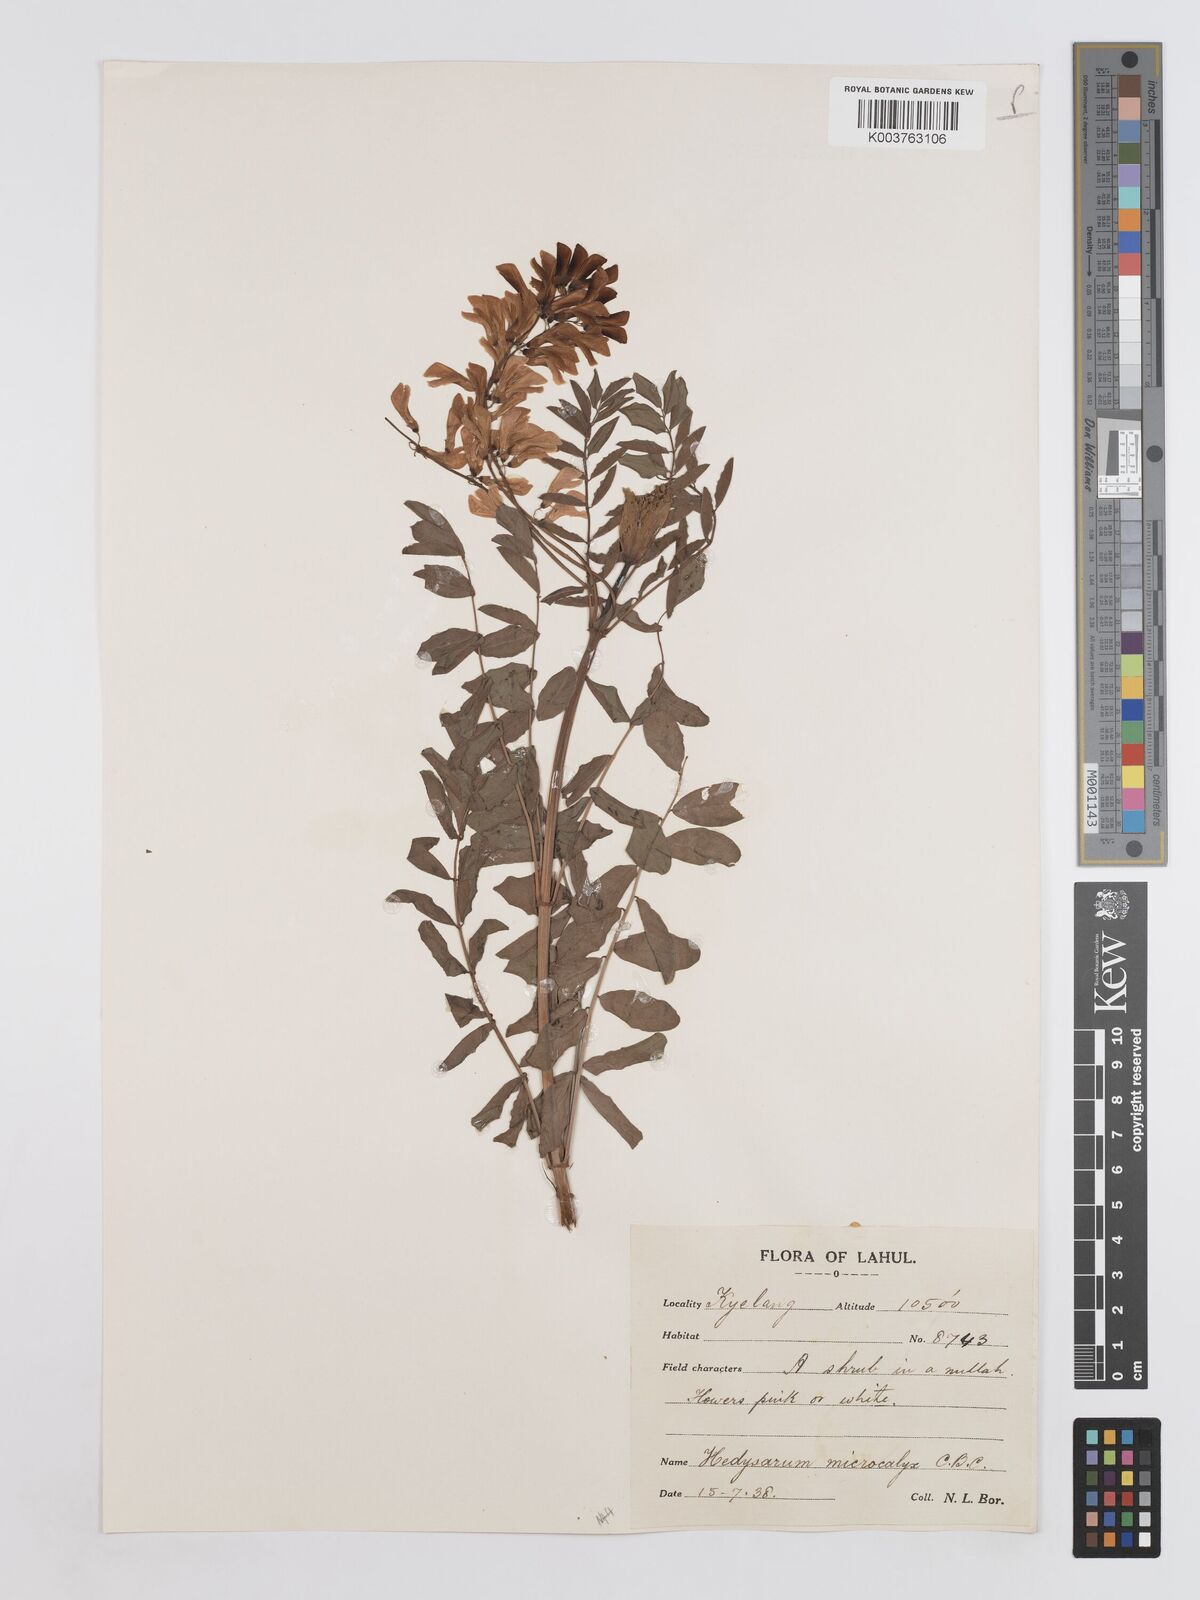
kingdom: Plantae
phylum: Tracheophyta
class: Magnoliopsida
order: Fabales
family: Fabaceae
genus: Hedysarum
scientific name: Hedysarum microcalyx
